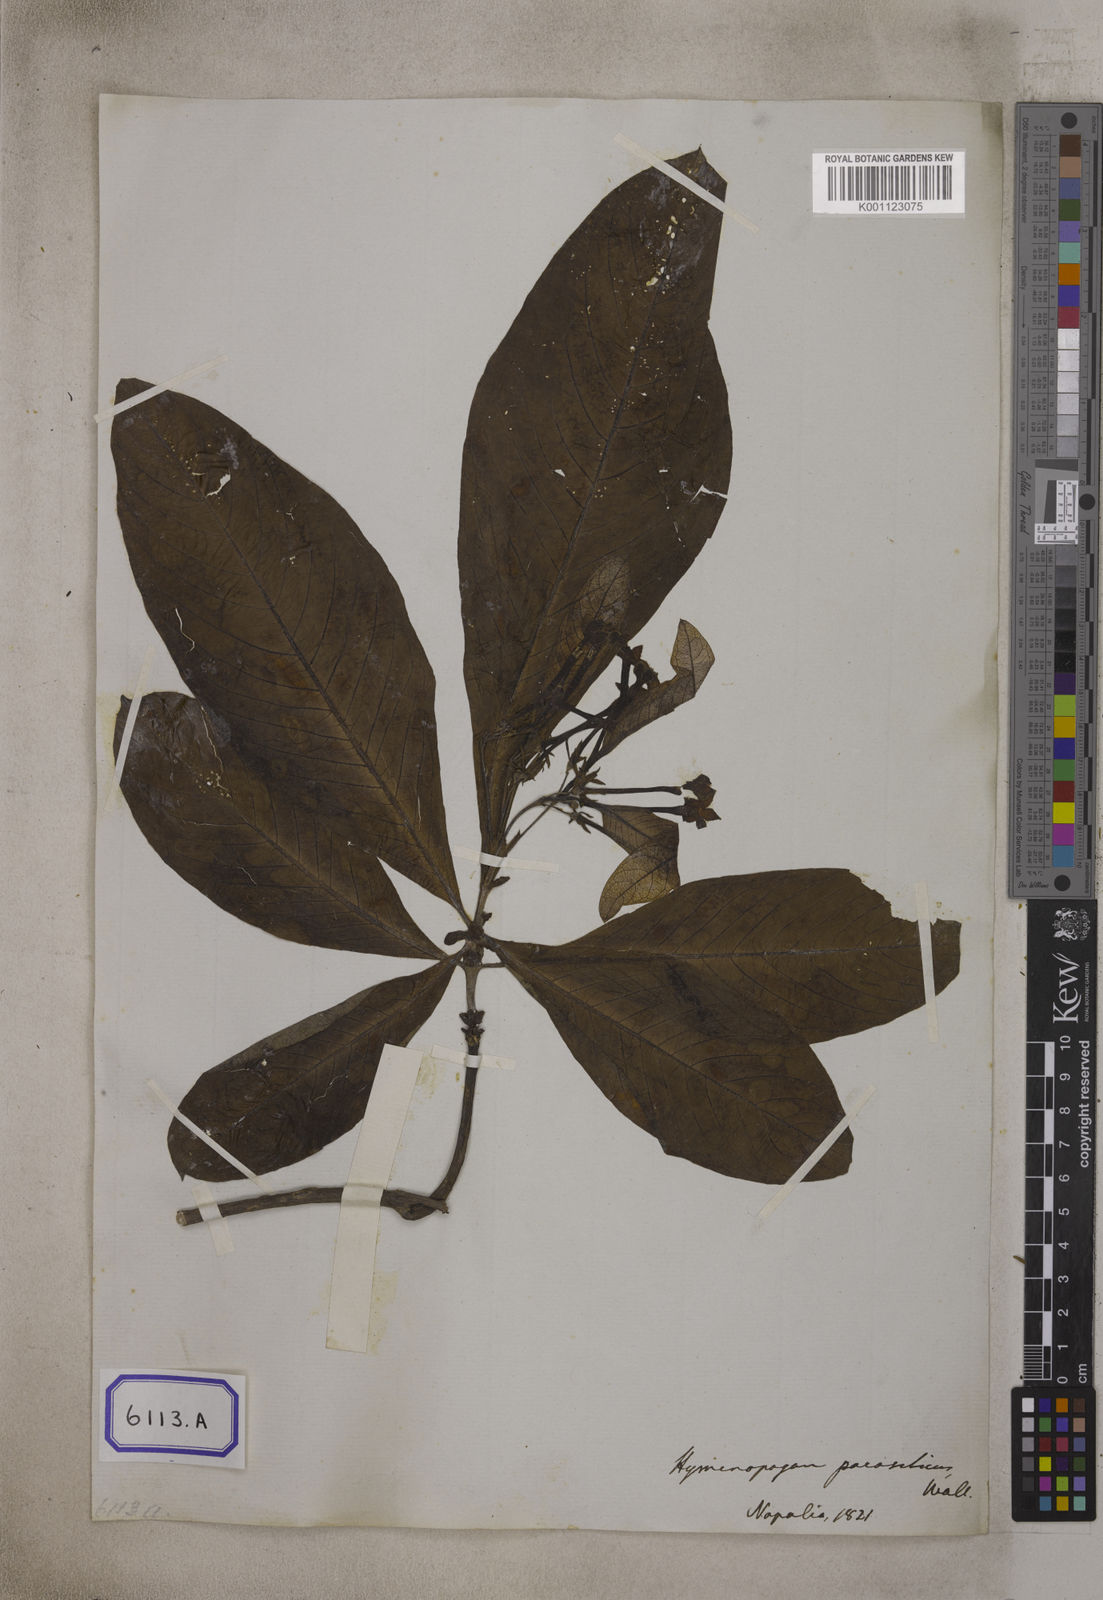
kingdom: Plantae
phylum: Tracheophyta
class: Magnoliopsida
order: Gentianales
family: Rubiaceae
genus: Neohymenopogon
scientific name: Neohymenopogon parasiticus
